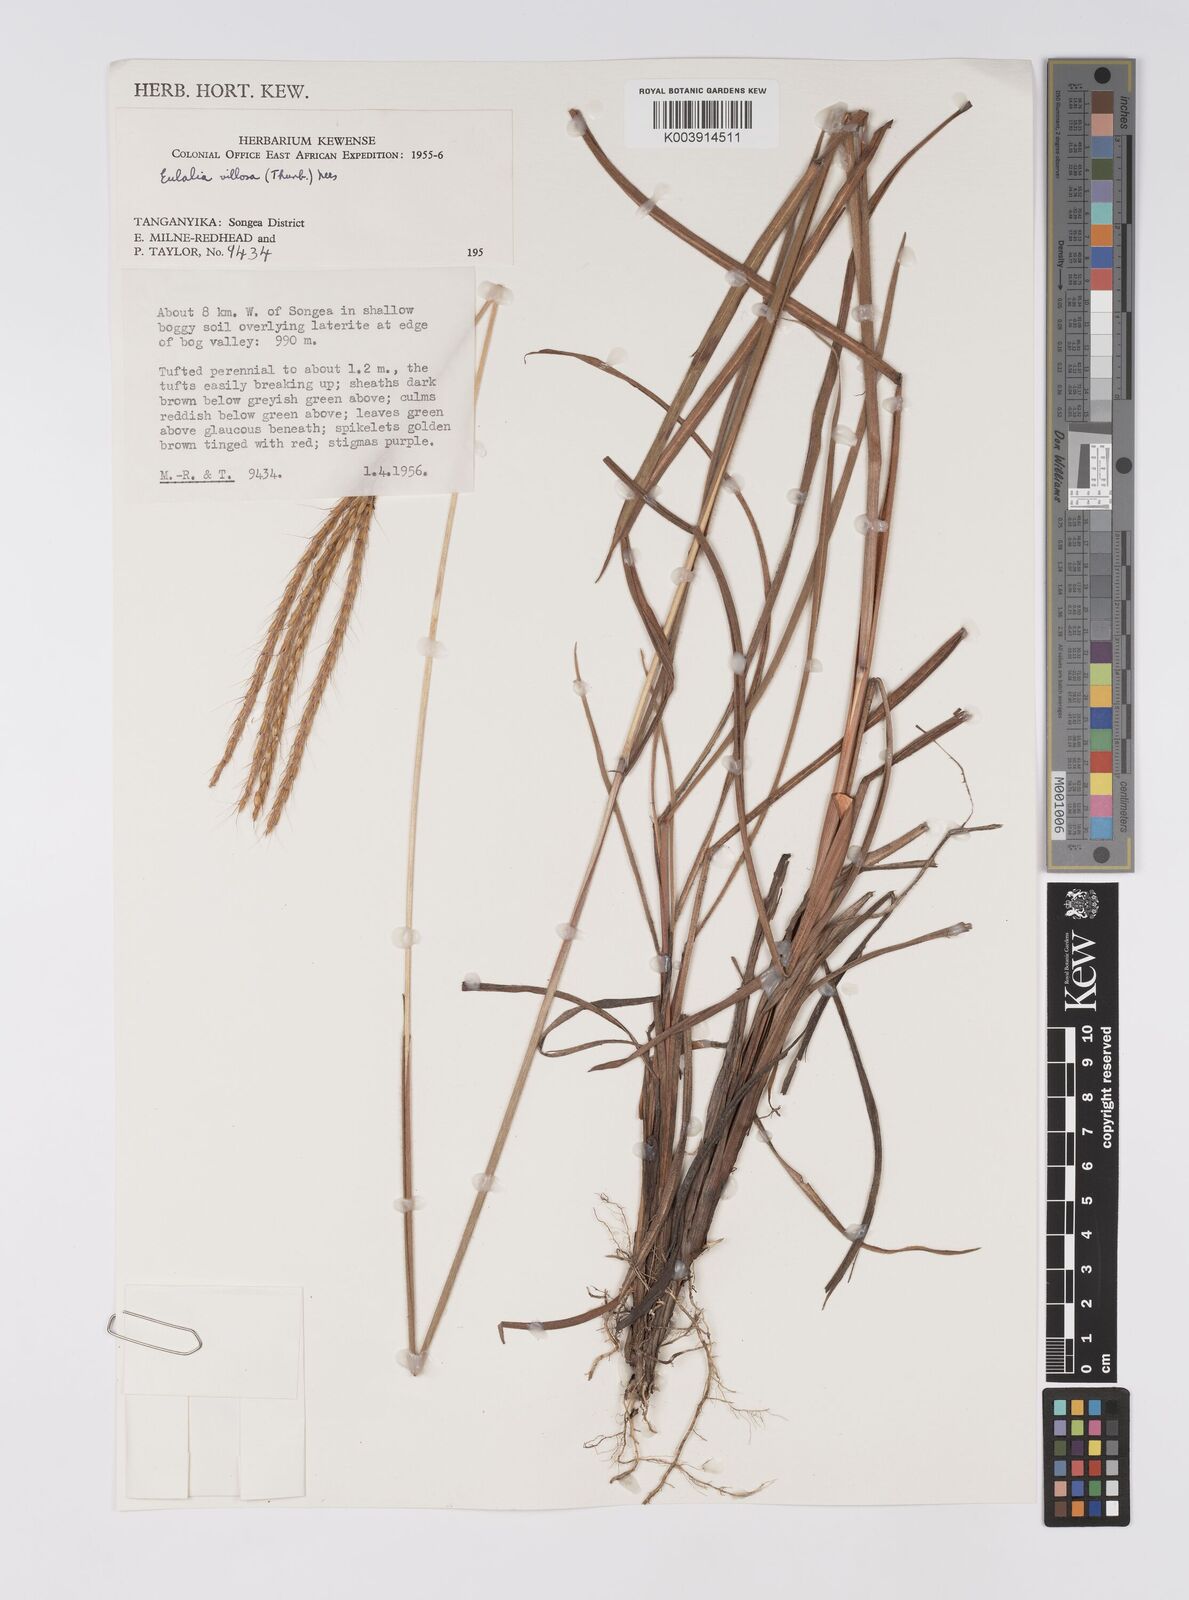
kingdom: Plantae
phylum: Tracheophyta
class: Liliopsida
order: Poales
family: Poaceae
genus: Eulalia
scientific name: Eulalia villosa
